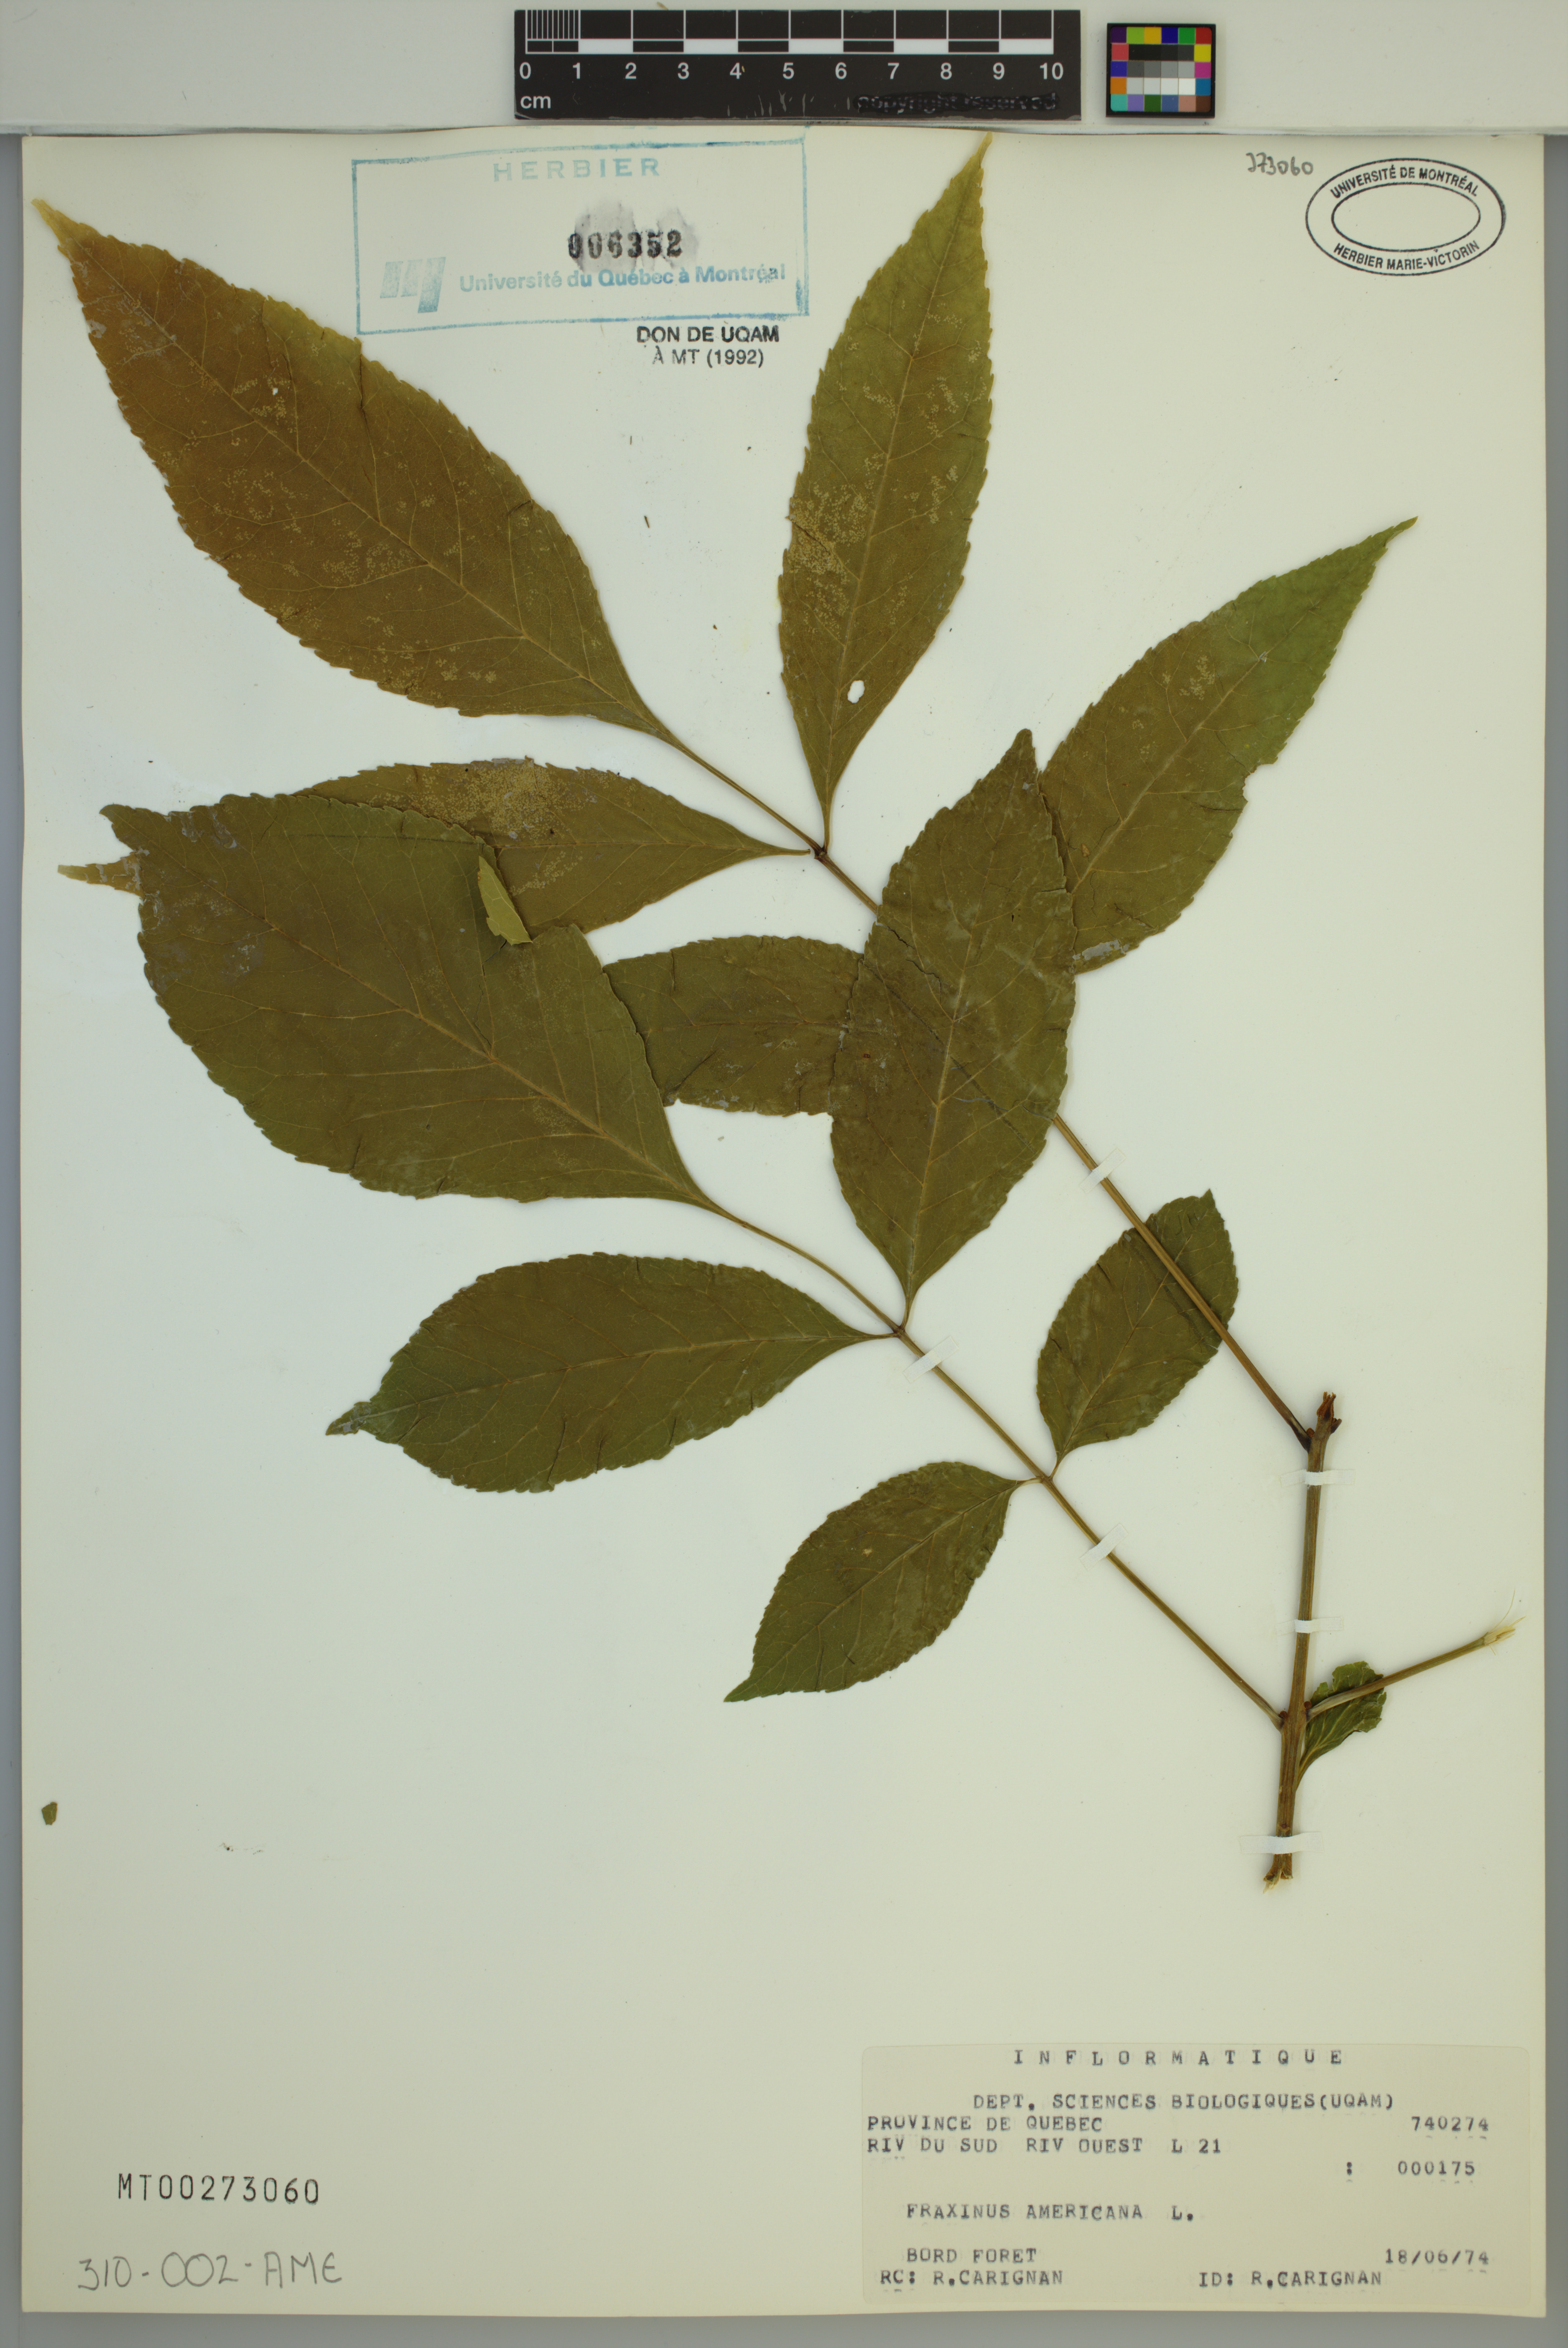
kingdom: Plantae
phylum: Tracheophyta
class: Magnoliopsida
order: Lamiales
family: Oleaceae
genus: Fraxinus
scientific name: Fraxinus pennsylvanica
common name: Green ash
